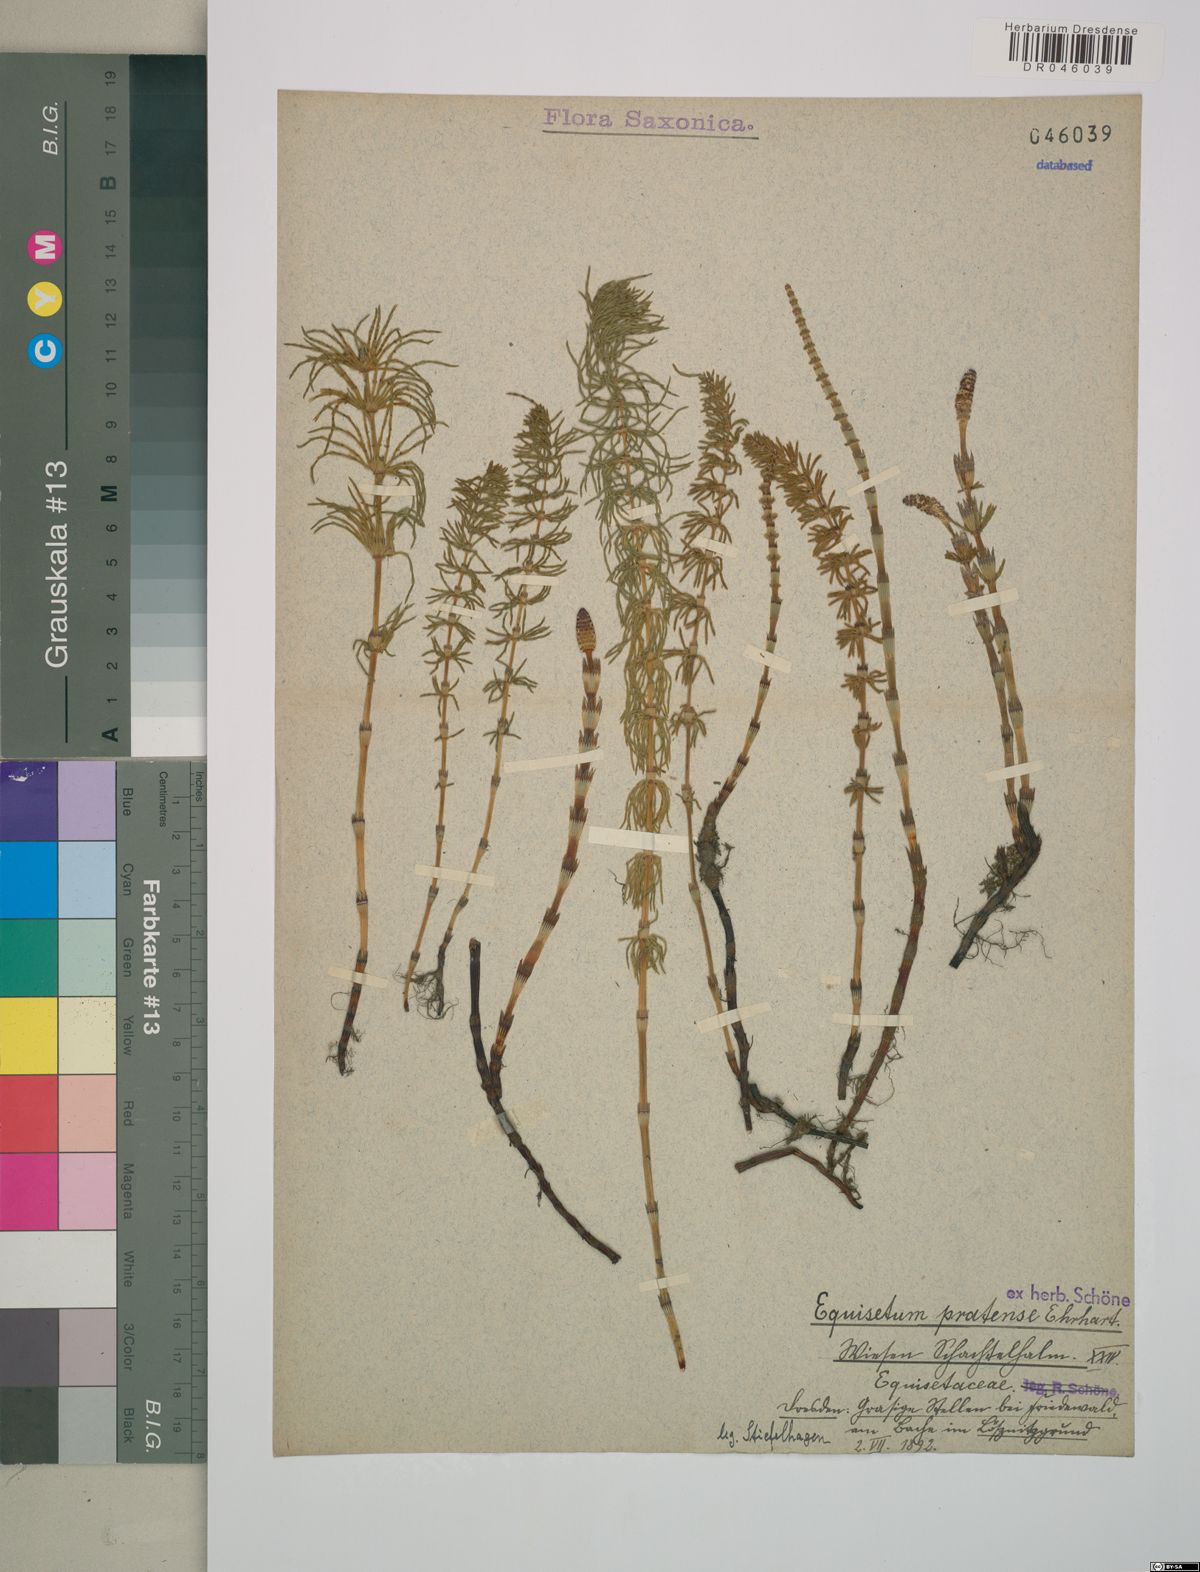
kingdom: Plantae
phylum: Tracheophyta
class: Polypodiopsida
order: Equisetales
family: Equisetaceae
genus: Equisetum
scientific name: Equisetum pratense
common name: Meadow horsetail
